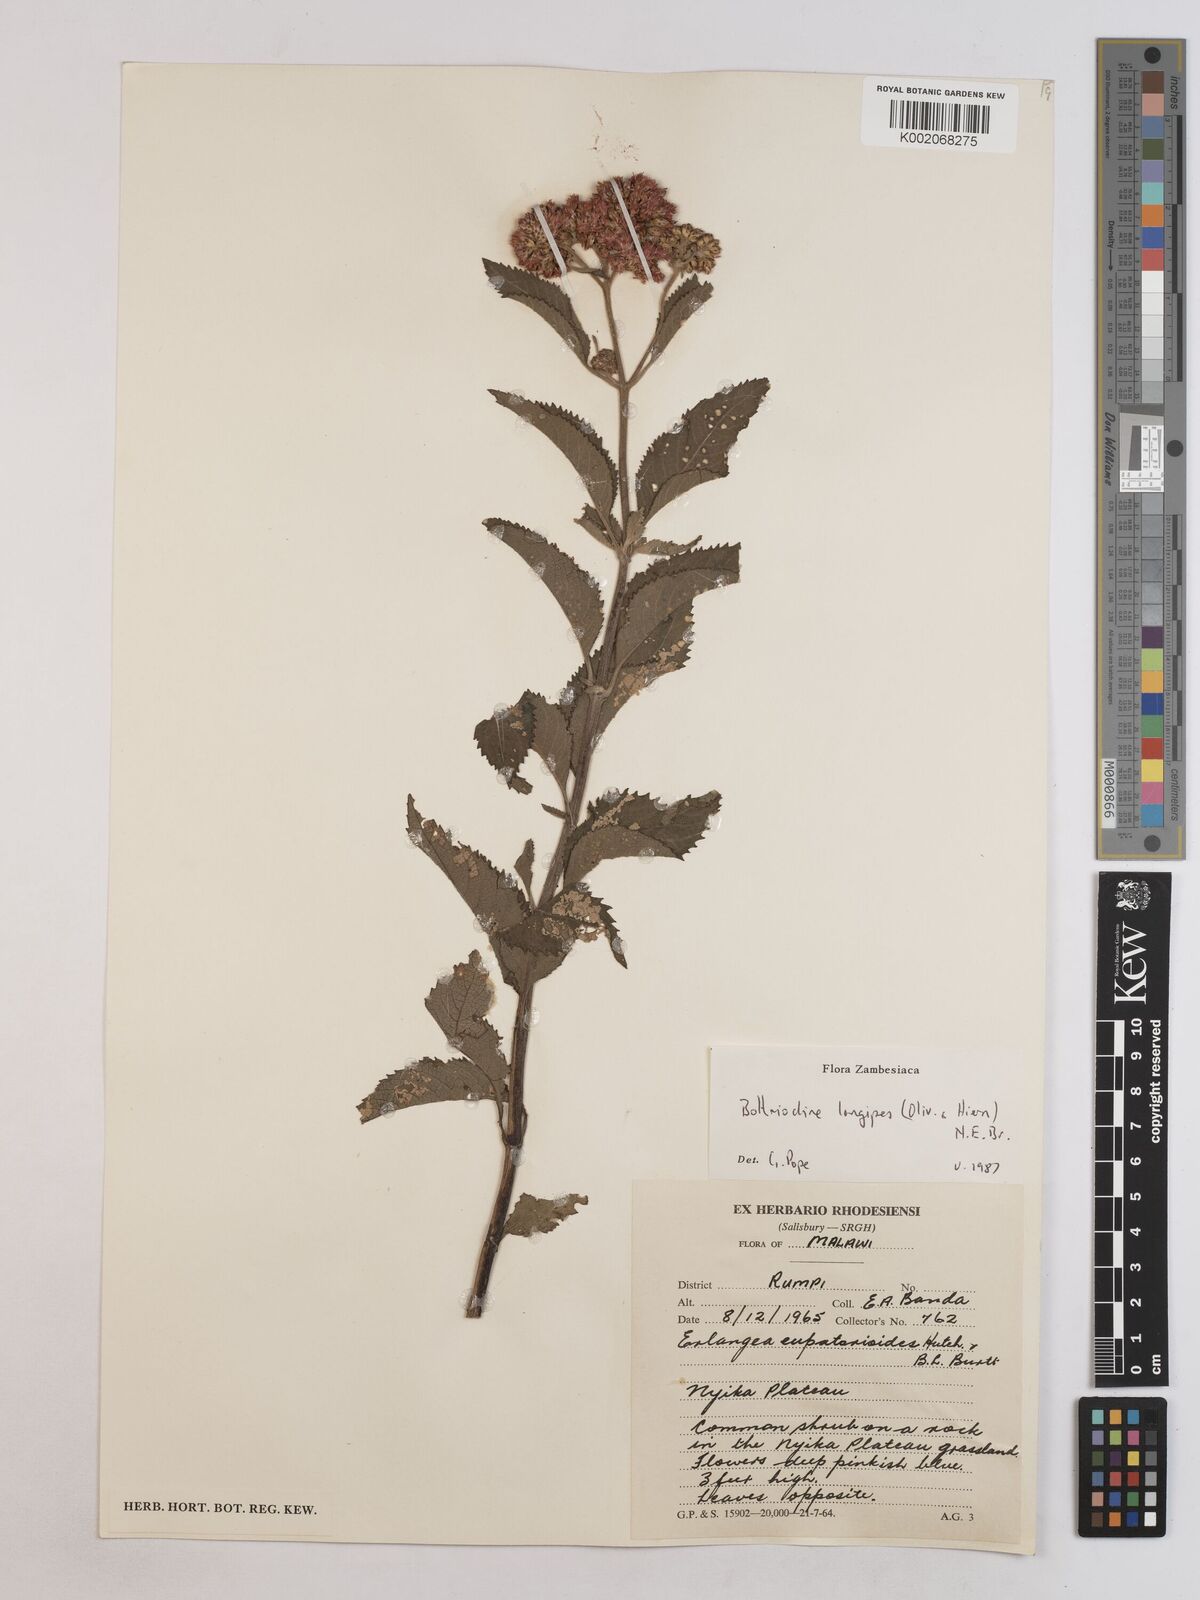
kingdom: Plantae
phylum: Tracheophyta
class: Magnoliopsida
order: Asterales
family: Asteraceae
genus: Bothriocline
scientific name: Bothriocline longipes
